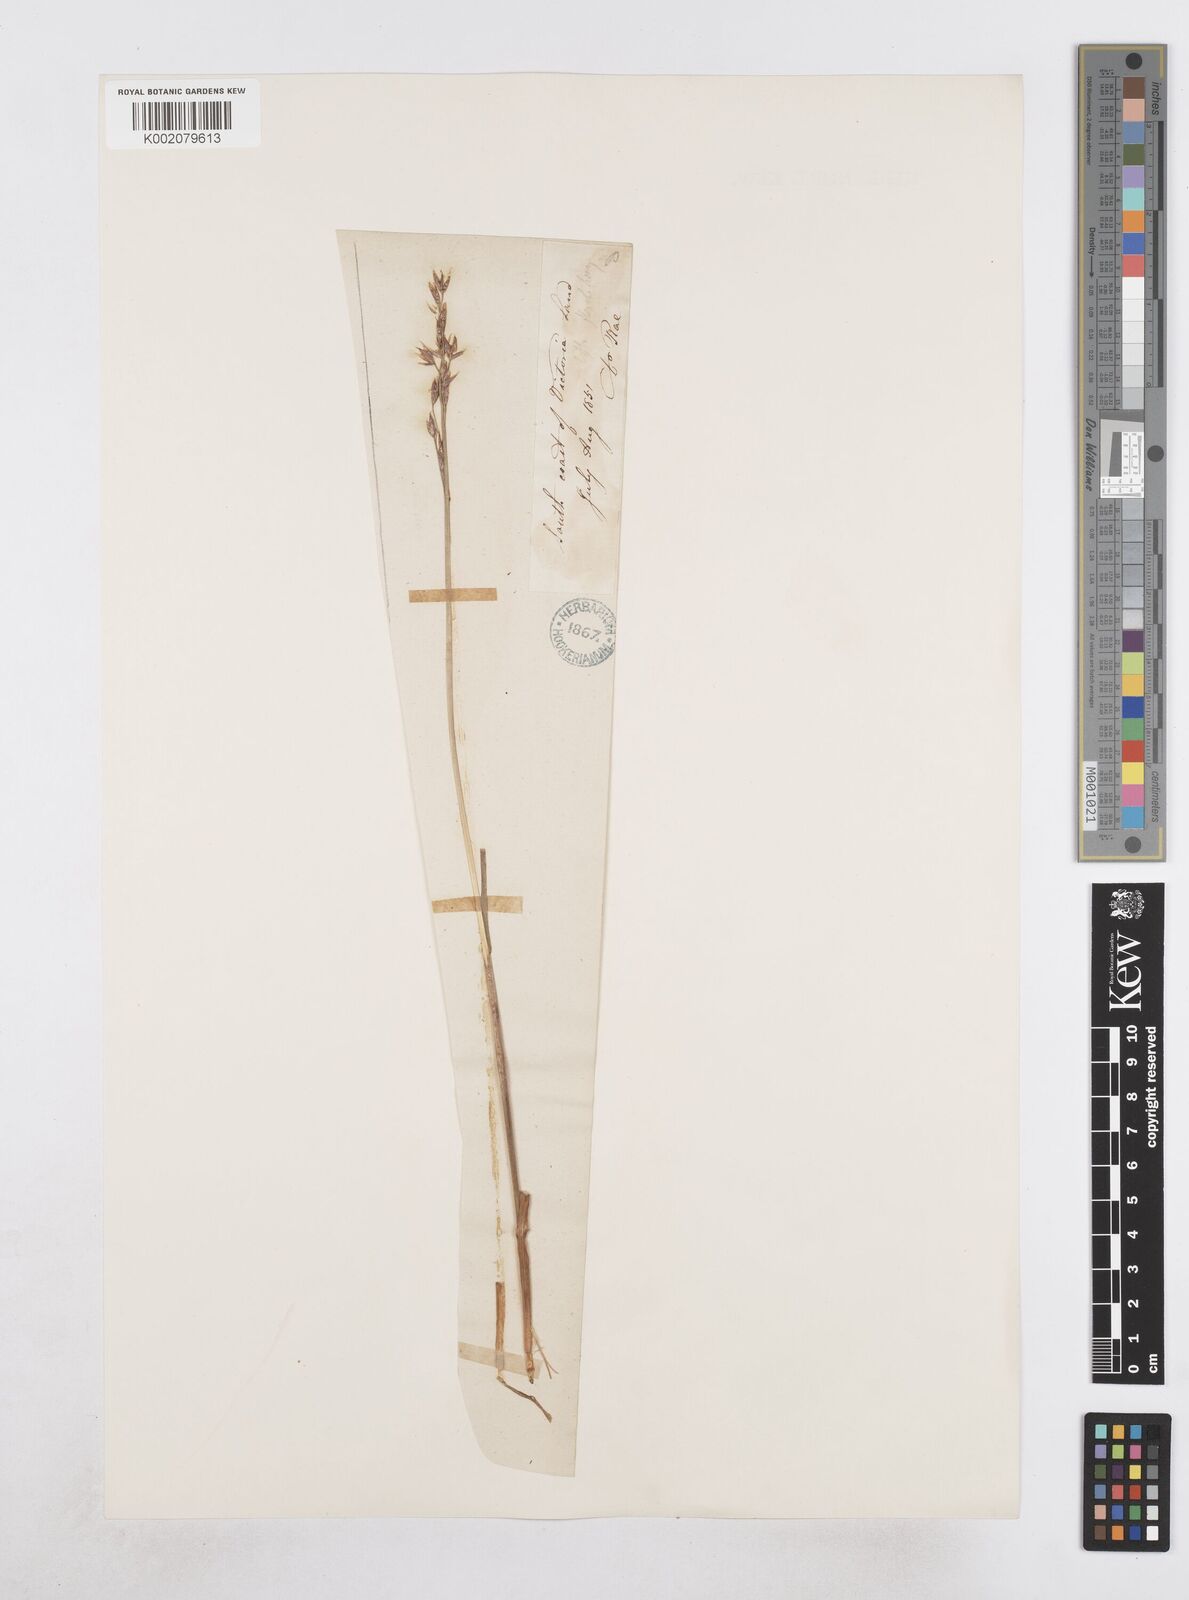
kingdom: Plantae
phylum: Tracheophyta
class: Liliopsida
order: Poales
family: Poaceae
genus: Dupontia
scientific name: Dupontia fisheri
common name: Tundra grass
